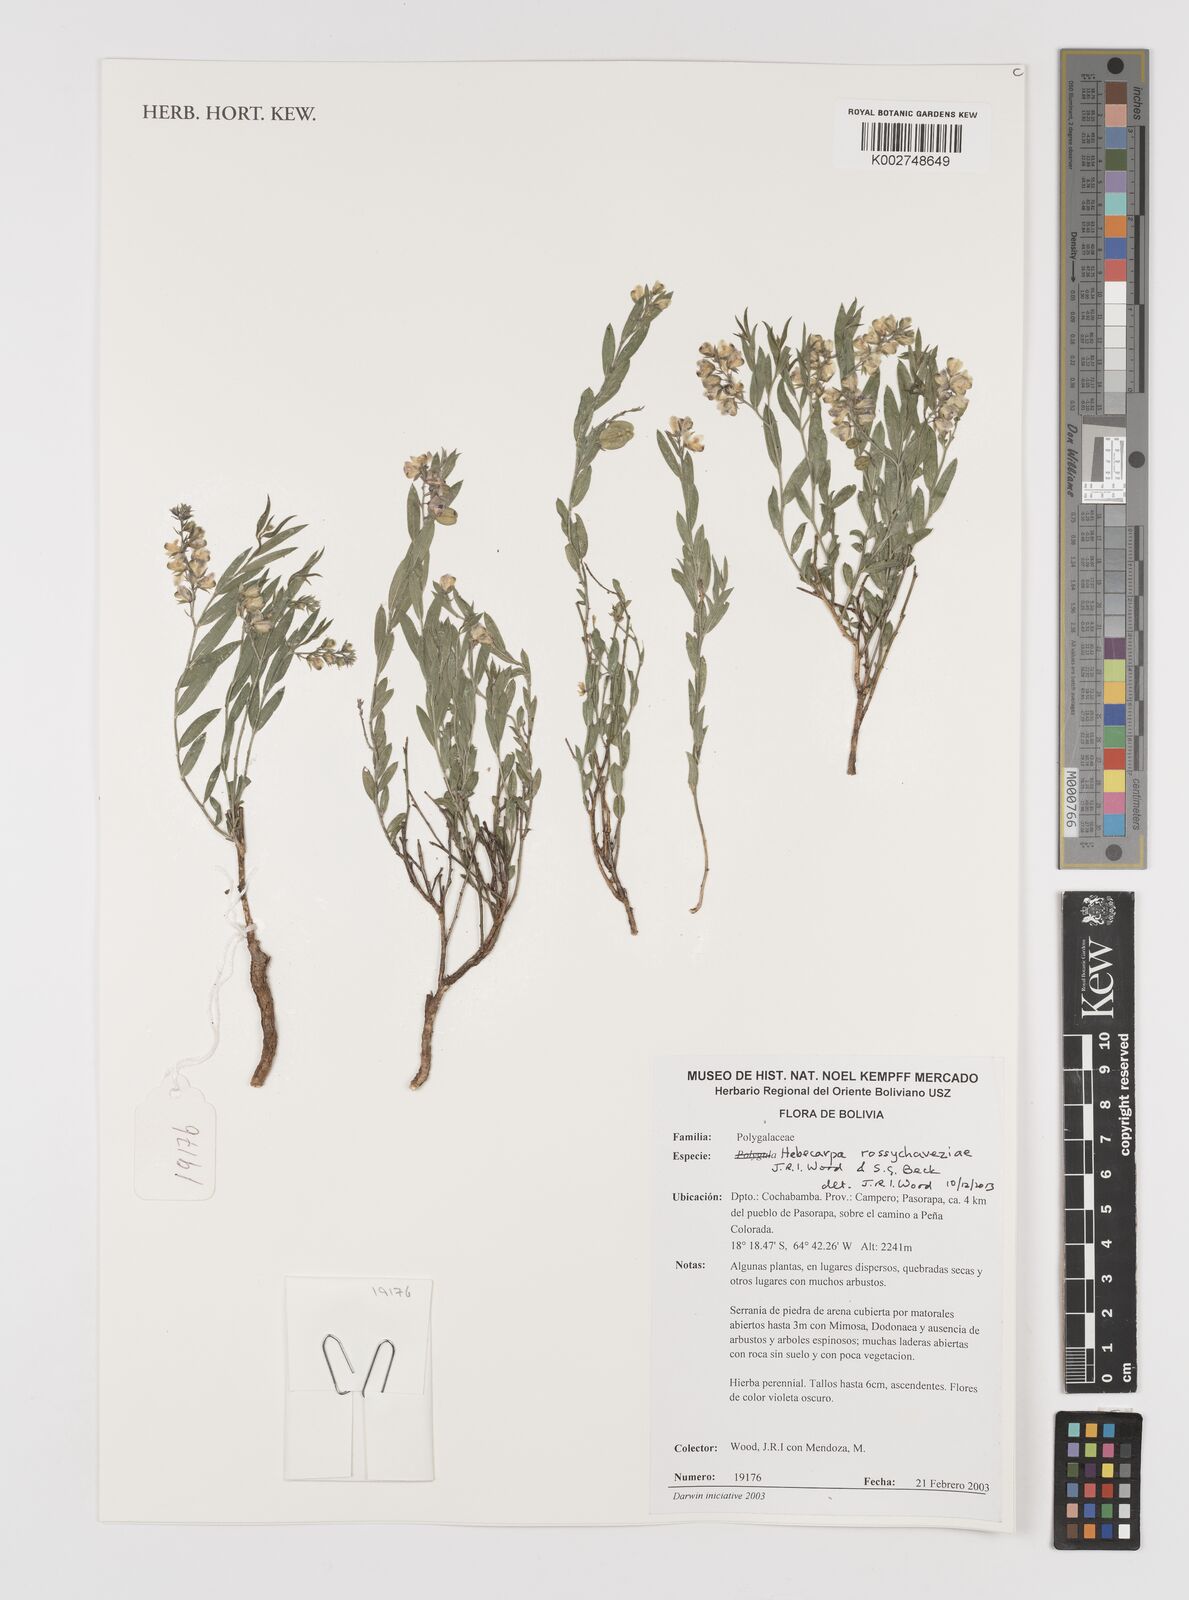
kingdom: Plantae
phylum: Tracheophyta
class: Magnoliopsida
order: Fabales
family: Polygalaceae
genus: Hebecarpa
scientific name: Hebecarpa rossychaveziae
